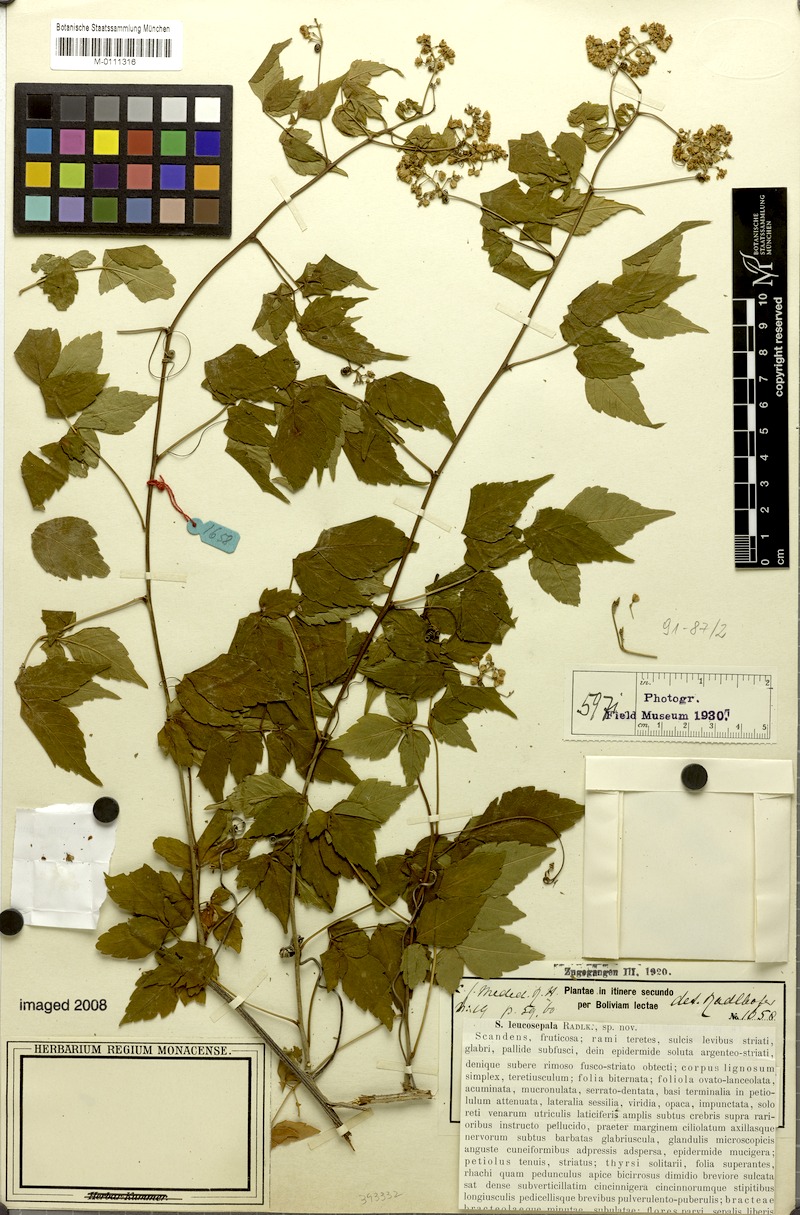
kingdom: Plantae
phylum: Tracheophyta
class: Magnoliopsida
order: Sapindales
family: Sapindaceae
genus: Serjania
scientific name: Serjania leucosepala
